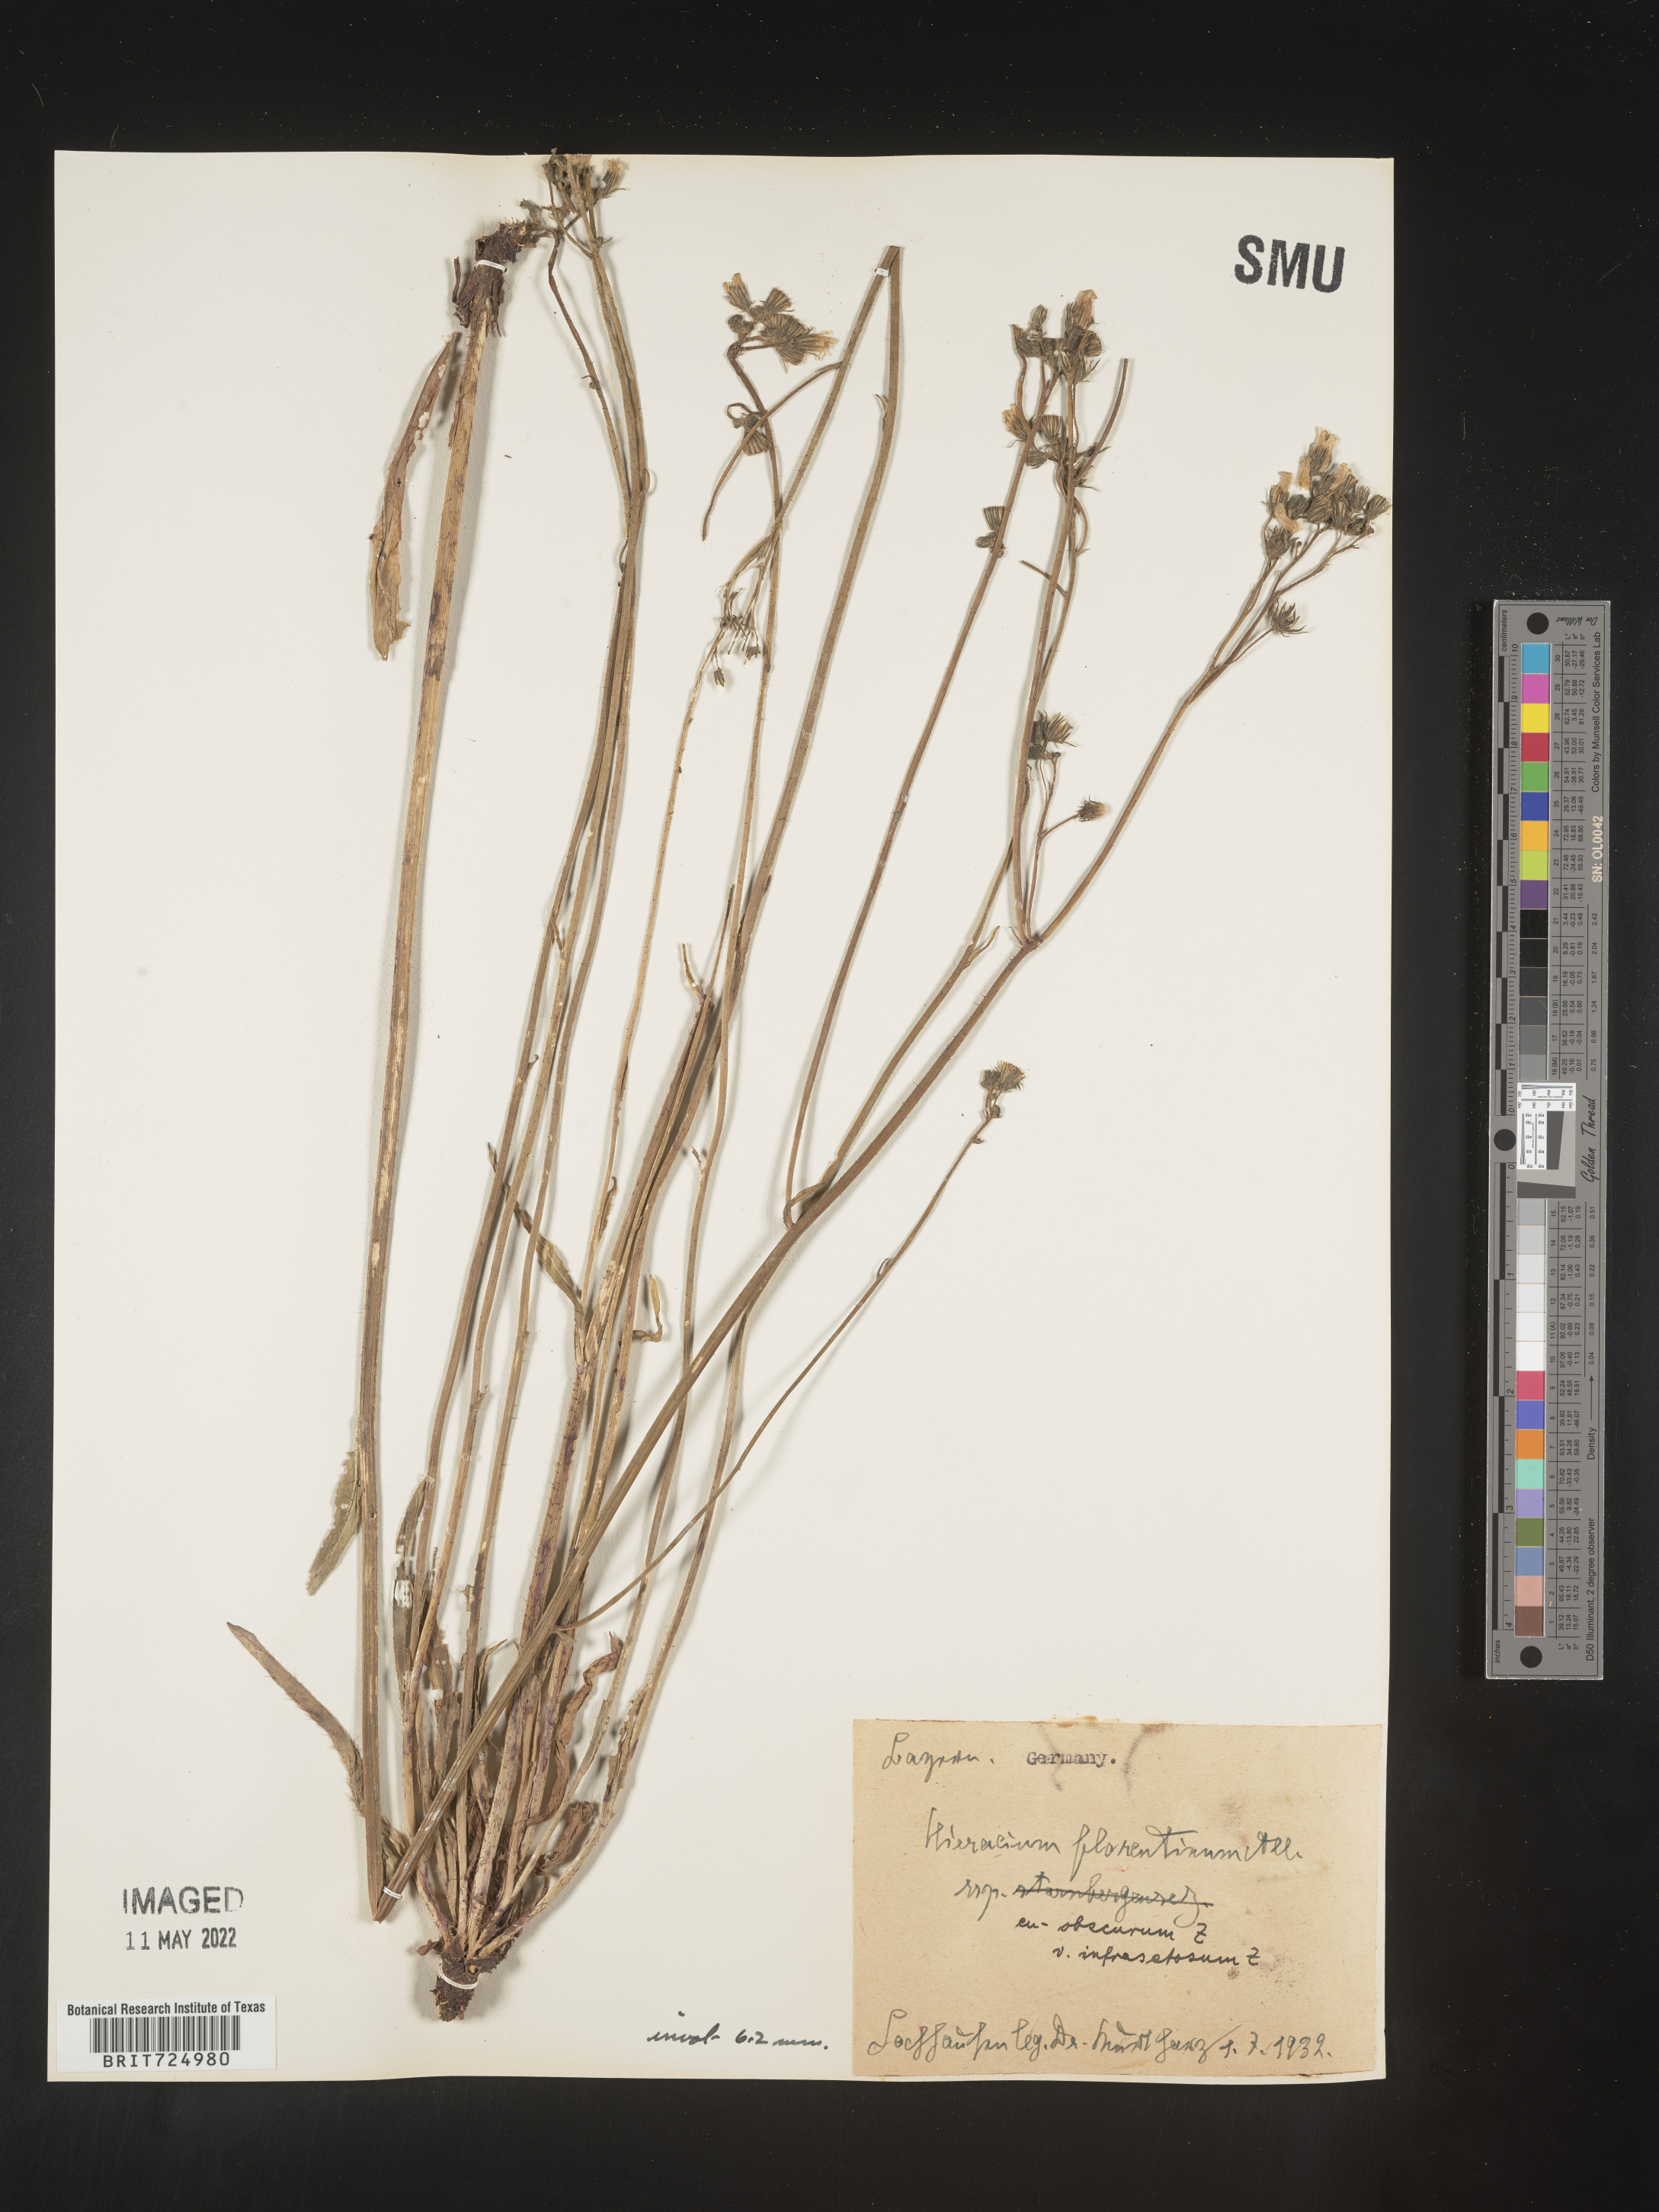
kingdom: Plantae
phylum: Tracheophyta
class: Magnoliopsida
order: Asterales
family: Asteraceae
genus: Hieracium
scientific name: Hieracium
